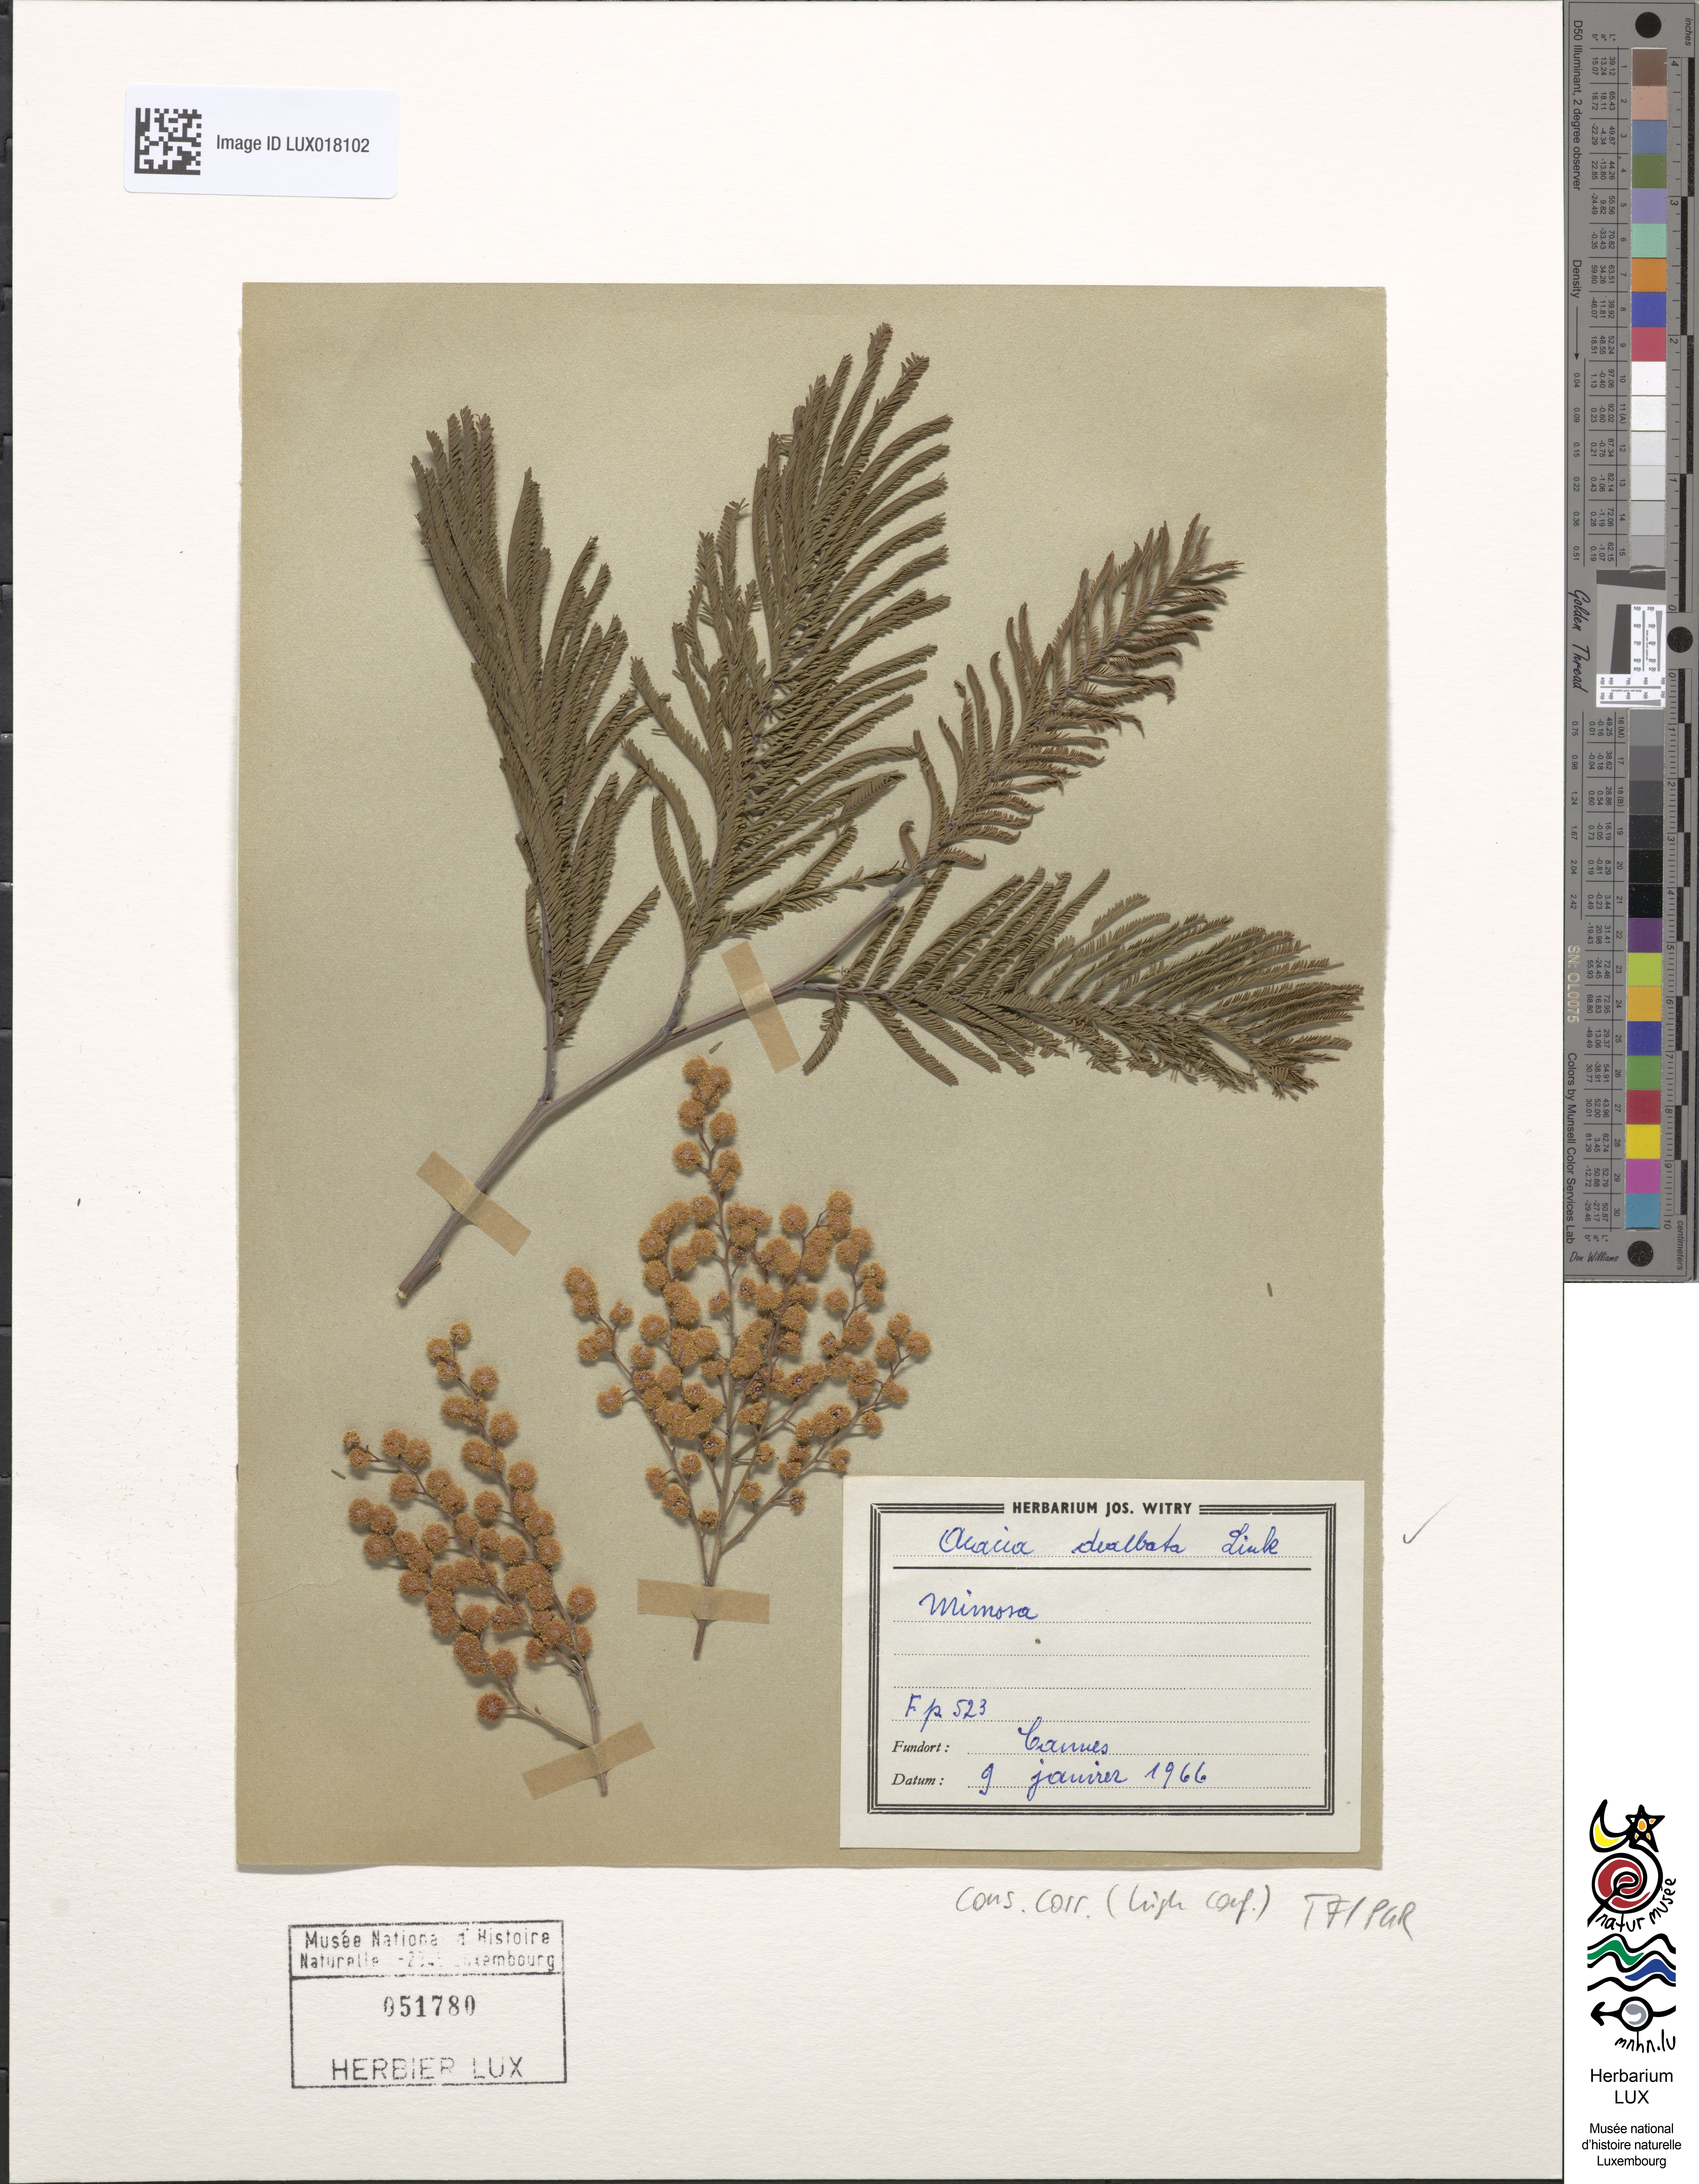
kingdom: Plantae
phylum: Tracheophyta
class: Magnoliopsida
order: Fabales
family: Fabaceae
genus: Acacia
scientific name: Acacia dealbata
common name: Silver wattle
